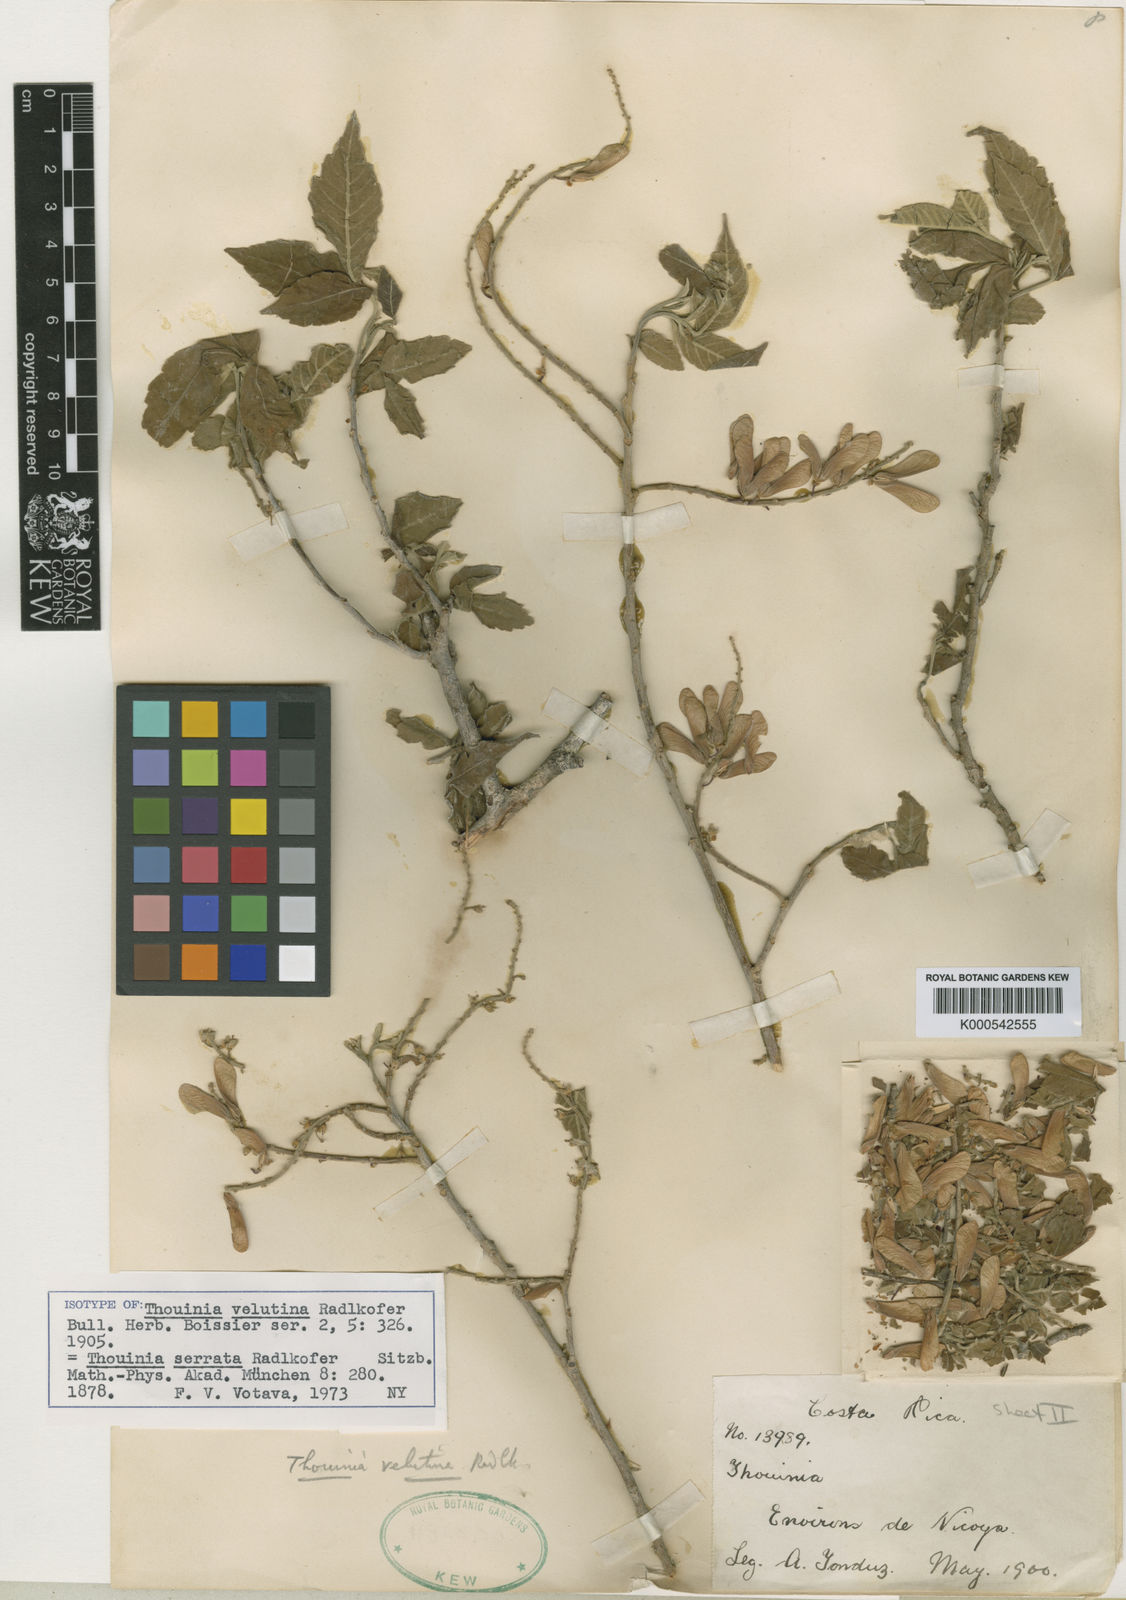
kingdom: Plantae
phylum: Tracheophyta
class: Magnoliopsida
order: Sapindales
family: Sapindaceae
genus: Thouinia
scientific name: Thouinia serrata
